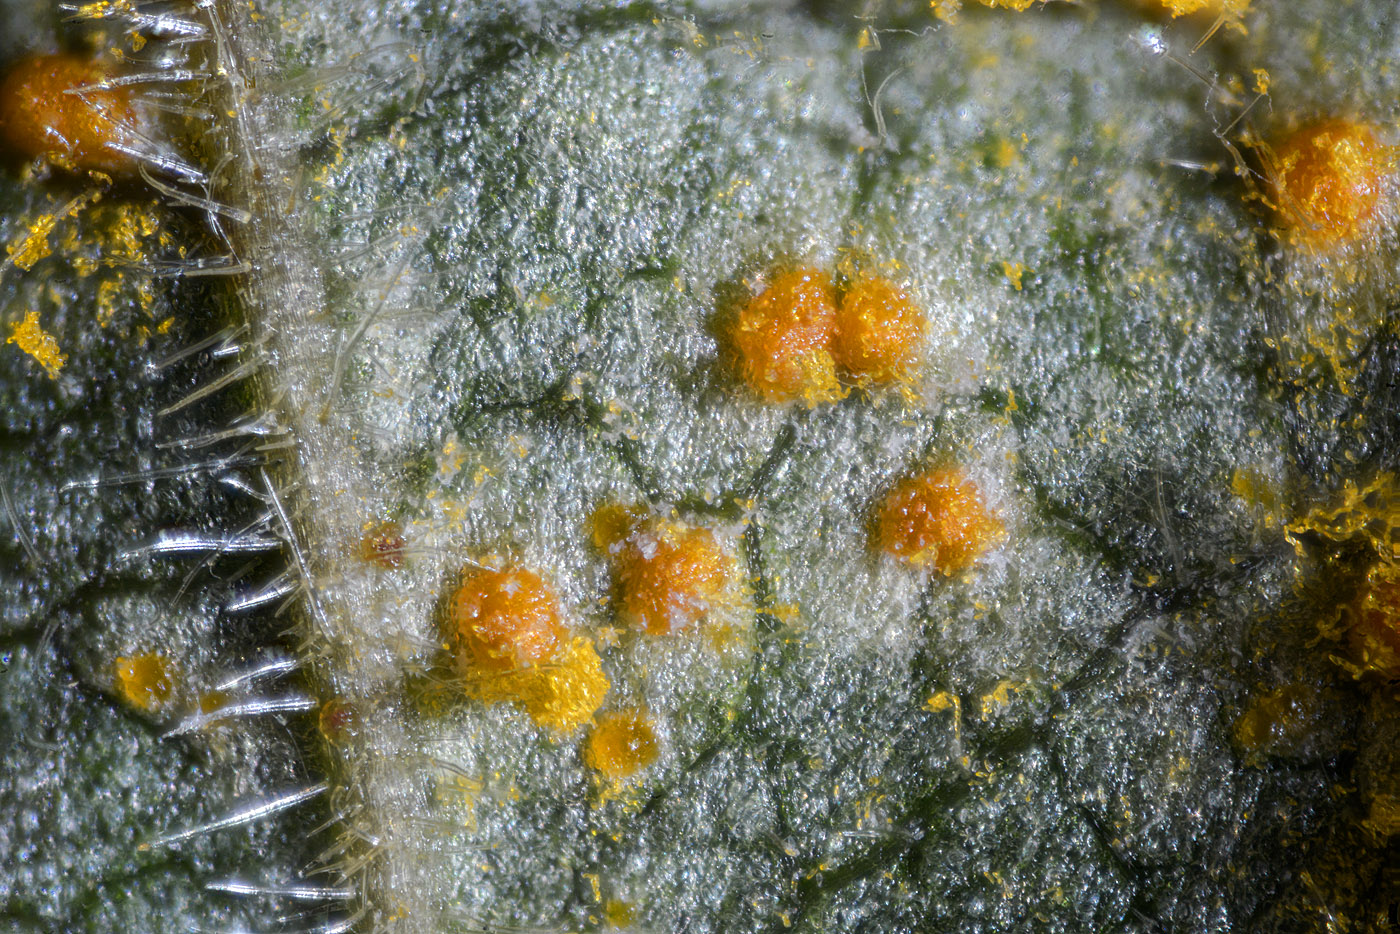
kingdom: Fungi
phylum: Basidiomycota
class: Pucciniomycetes
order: Pucciniales
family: Pucciniastraceae
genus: Melampsoridium
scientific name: Melampsoridium betulinum
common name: Birch rust
